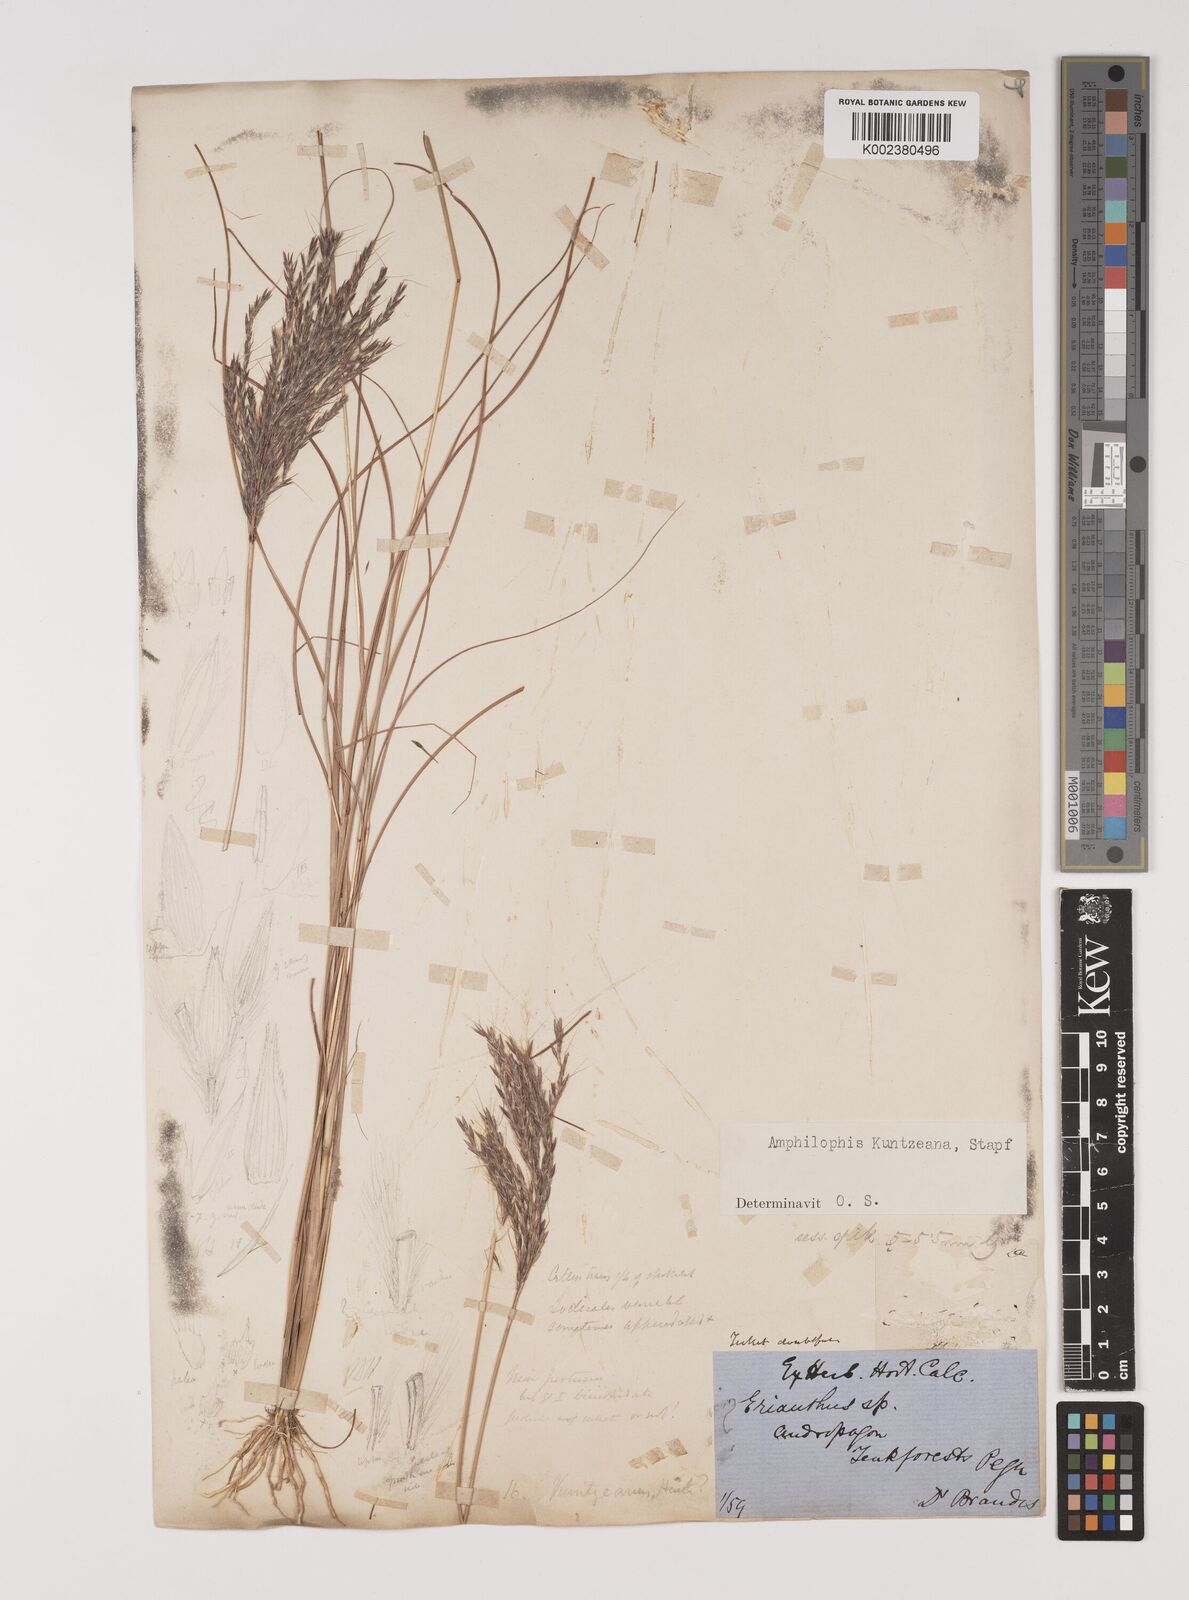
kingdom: Plantae
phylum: Tracheophyta
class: Liliopsida
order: Poales
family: Poaceae
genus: Bothriochloa
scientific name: Bothriochloa kuntzeana
